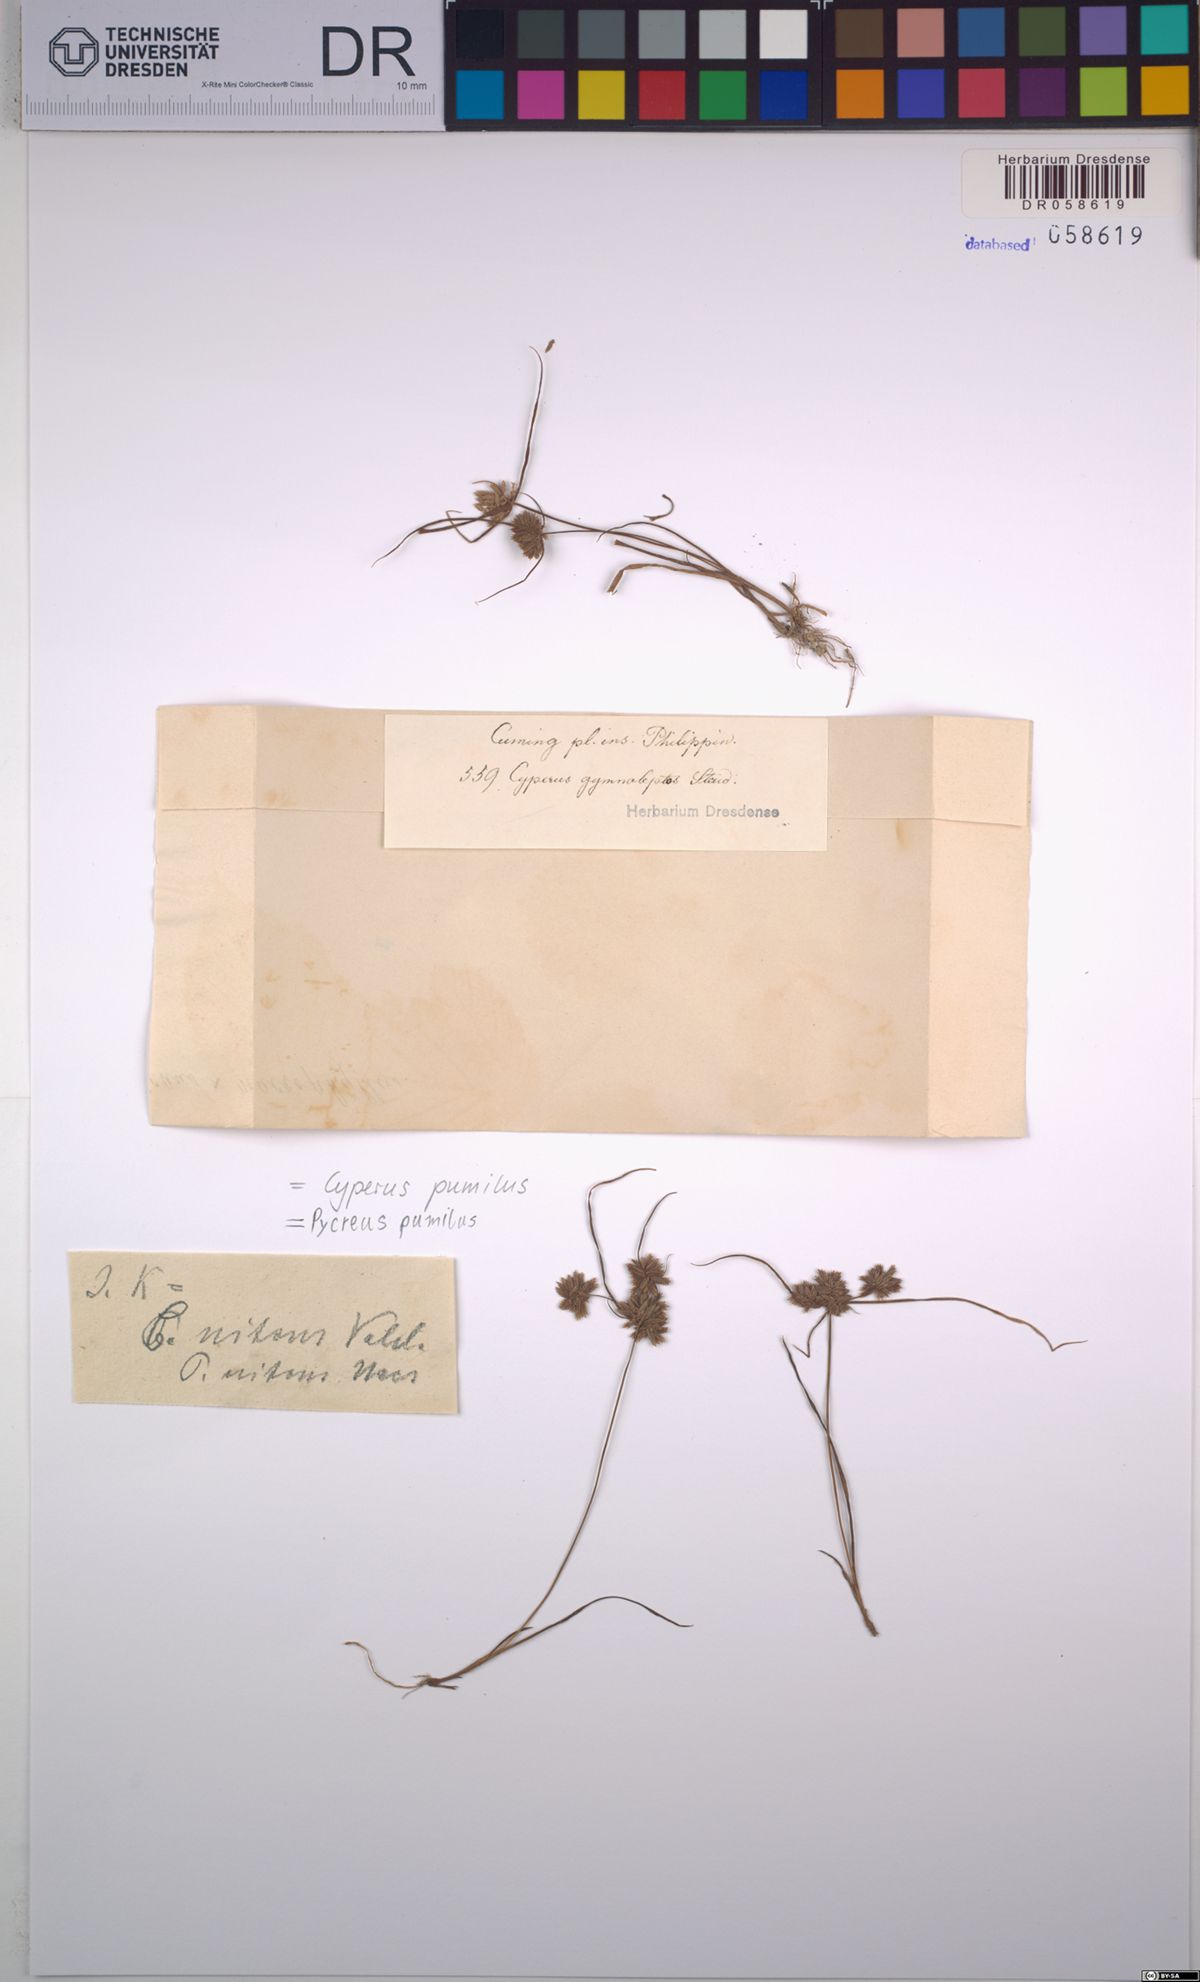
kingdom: Plantae
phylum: Tracheophyta
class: Liliopsida
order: Poales
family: Cyperaceae
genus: Cyperus
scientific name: Cyperus pumilus
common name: Low flatsedge
